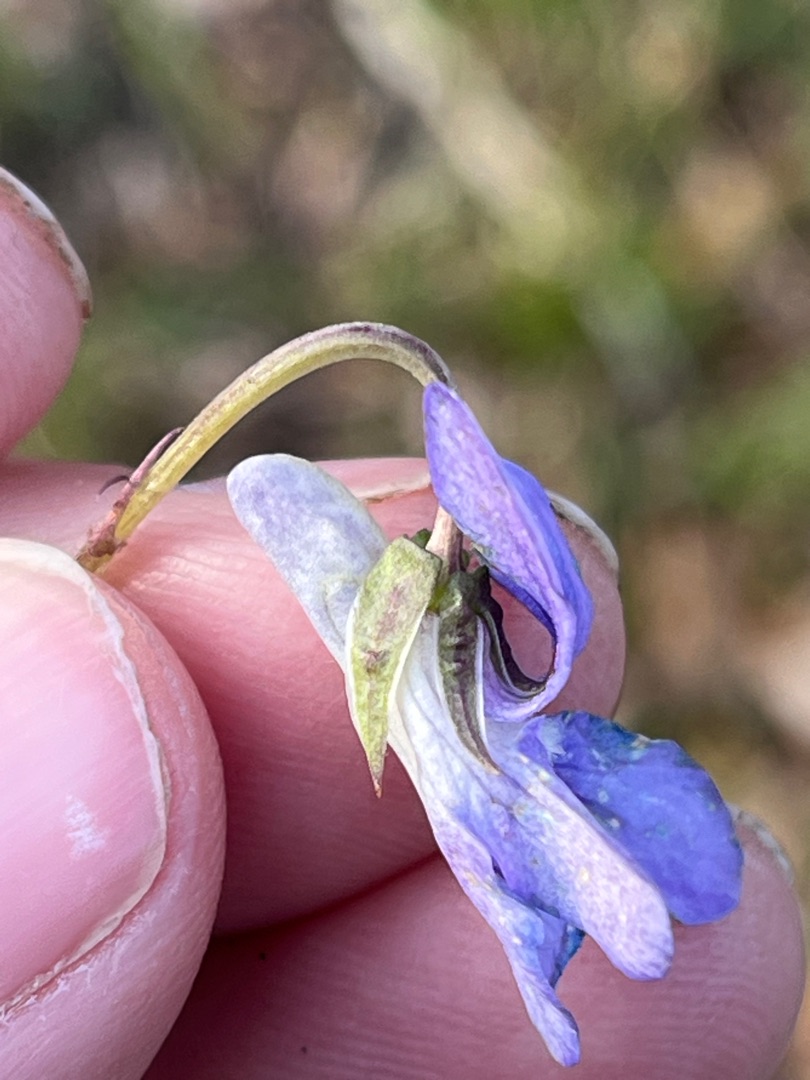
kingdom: Plantae
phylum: Tracheophyta
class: Magnoliopsida
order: Malpighiales
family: Violaceae
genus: Viola
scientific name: Viola reichenbachiana
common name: Skov-viol
